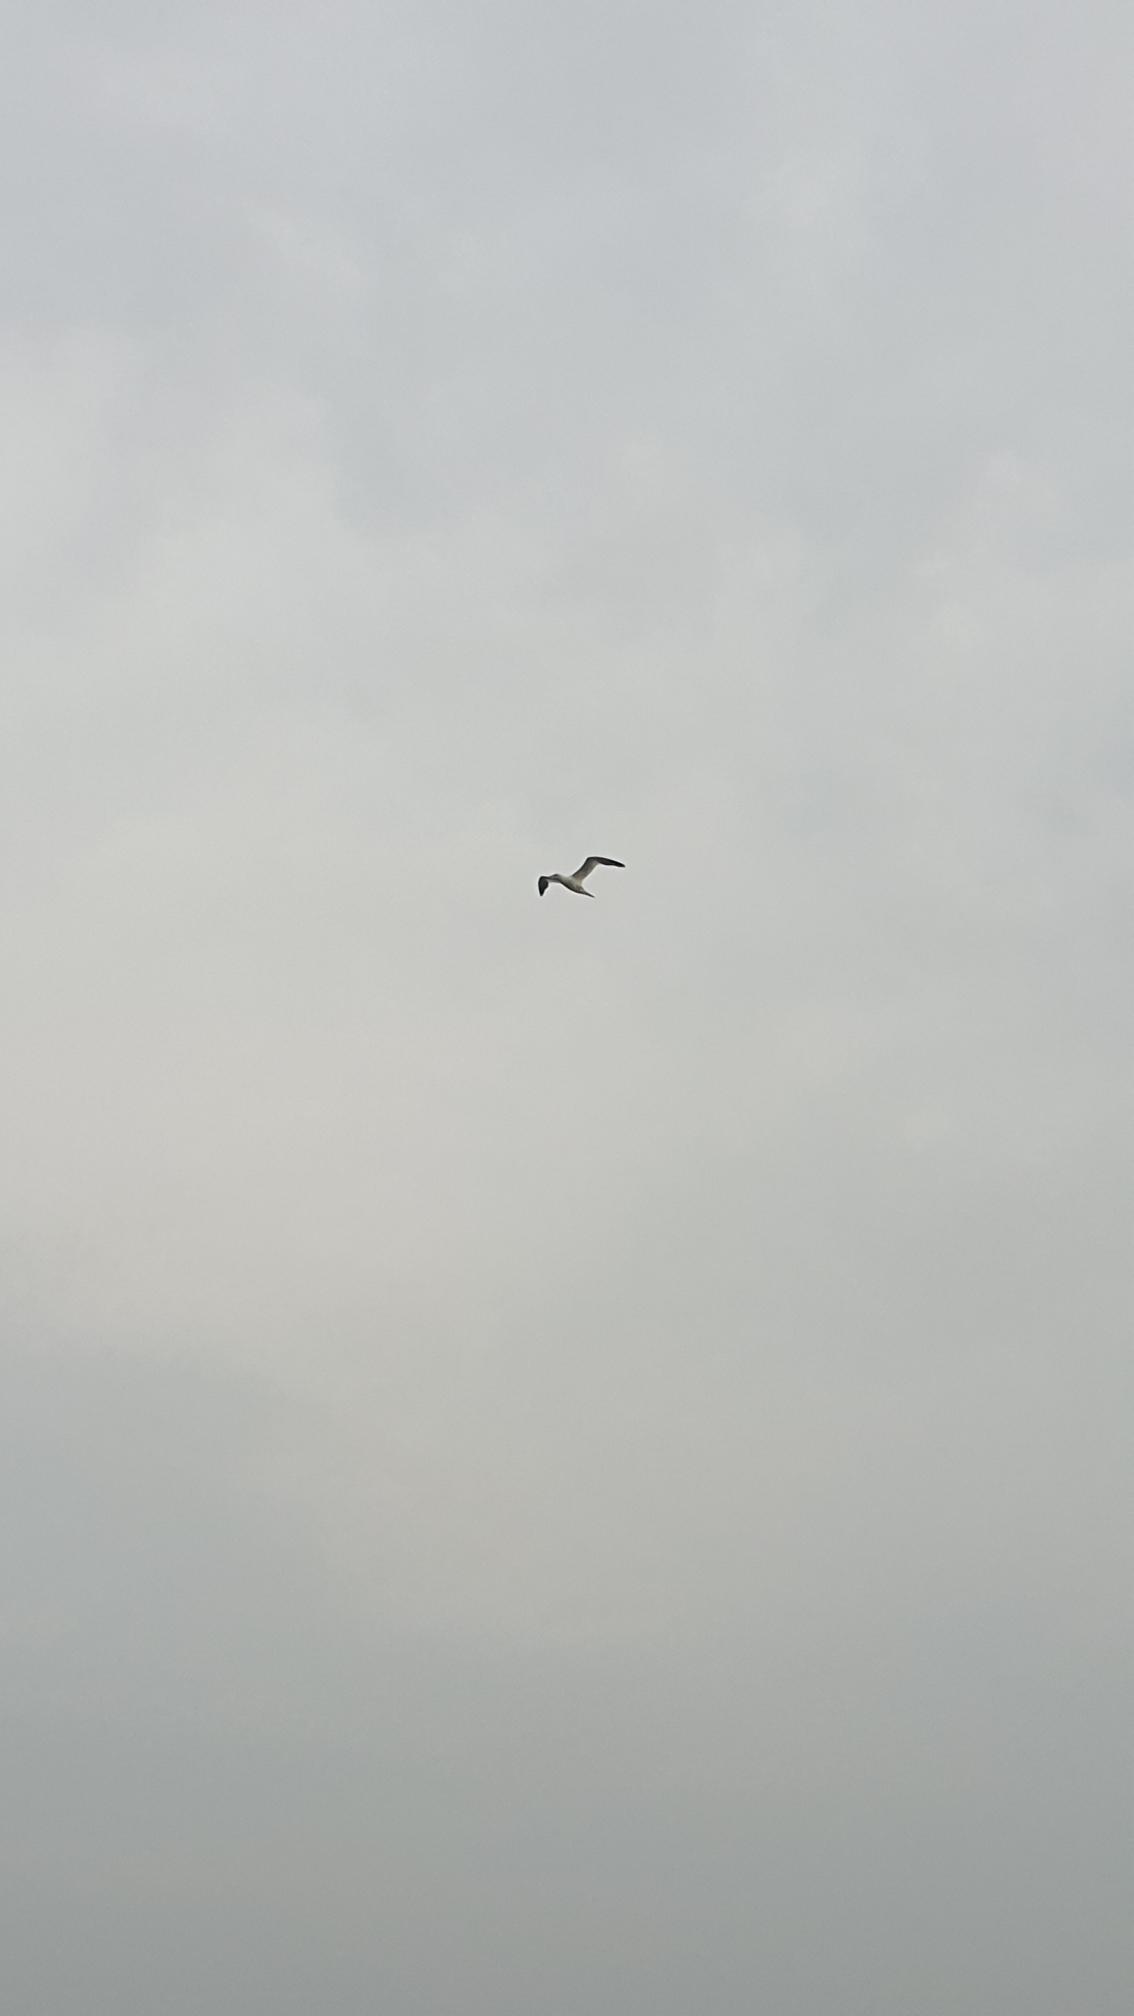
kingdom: Animalia
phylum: Chordata
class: Aves
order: Suliformes
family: Sulidae
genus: Morus
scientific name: Morus bassanus
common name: Sule
